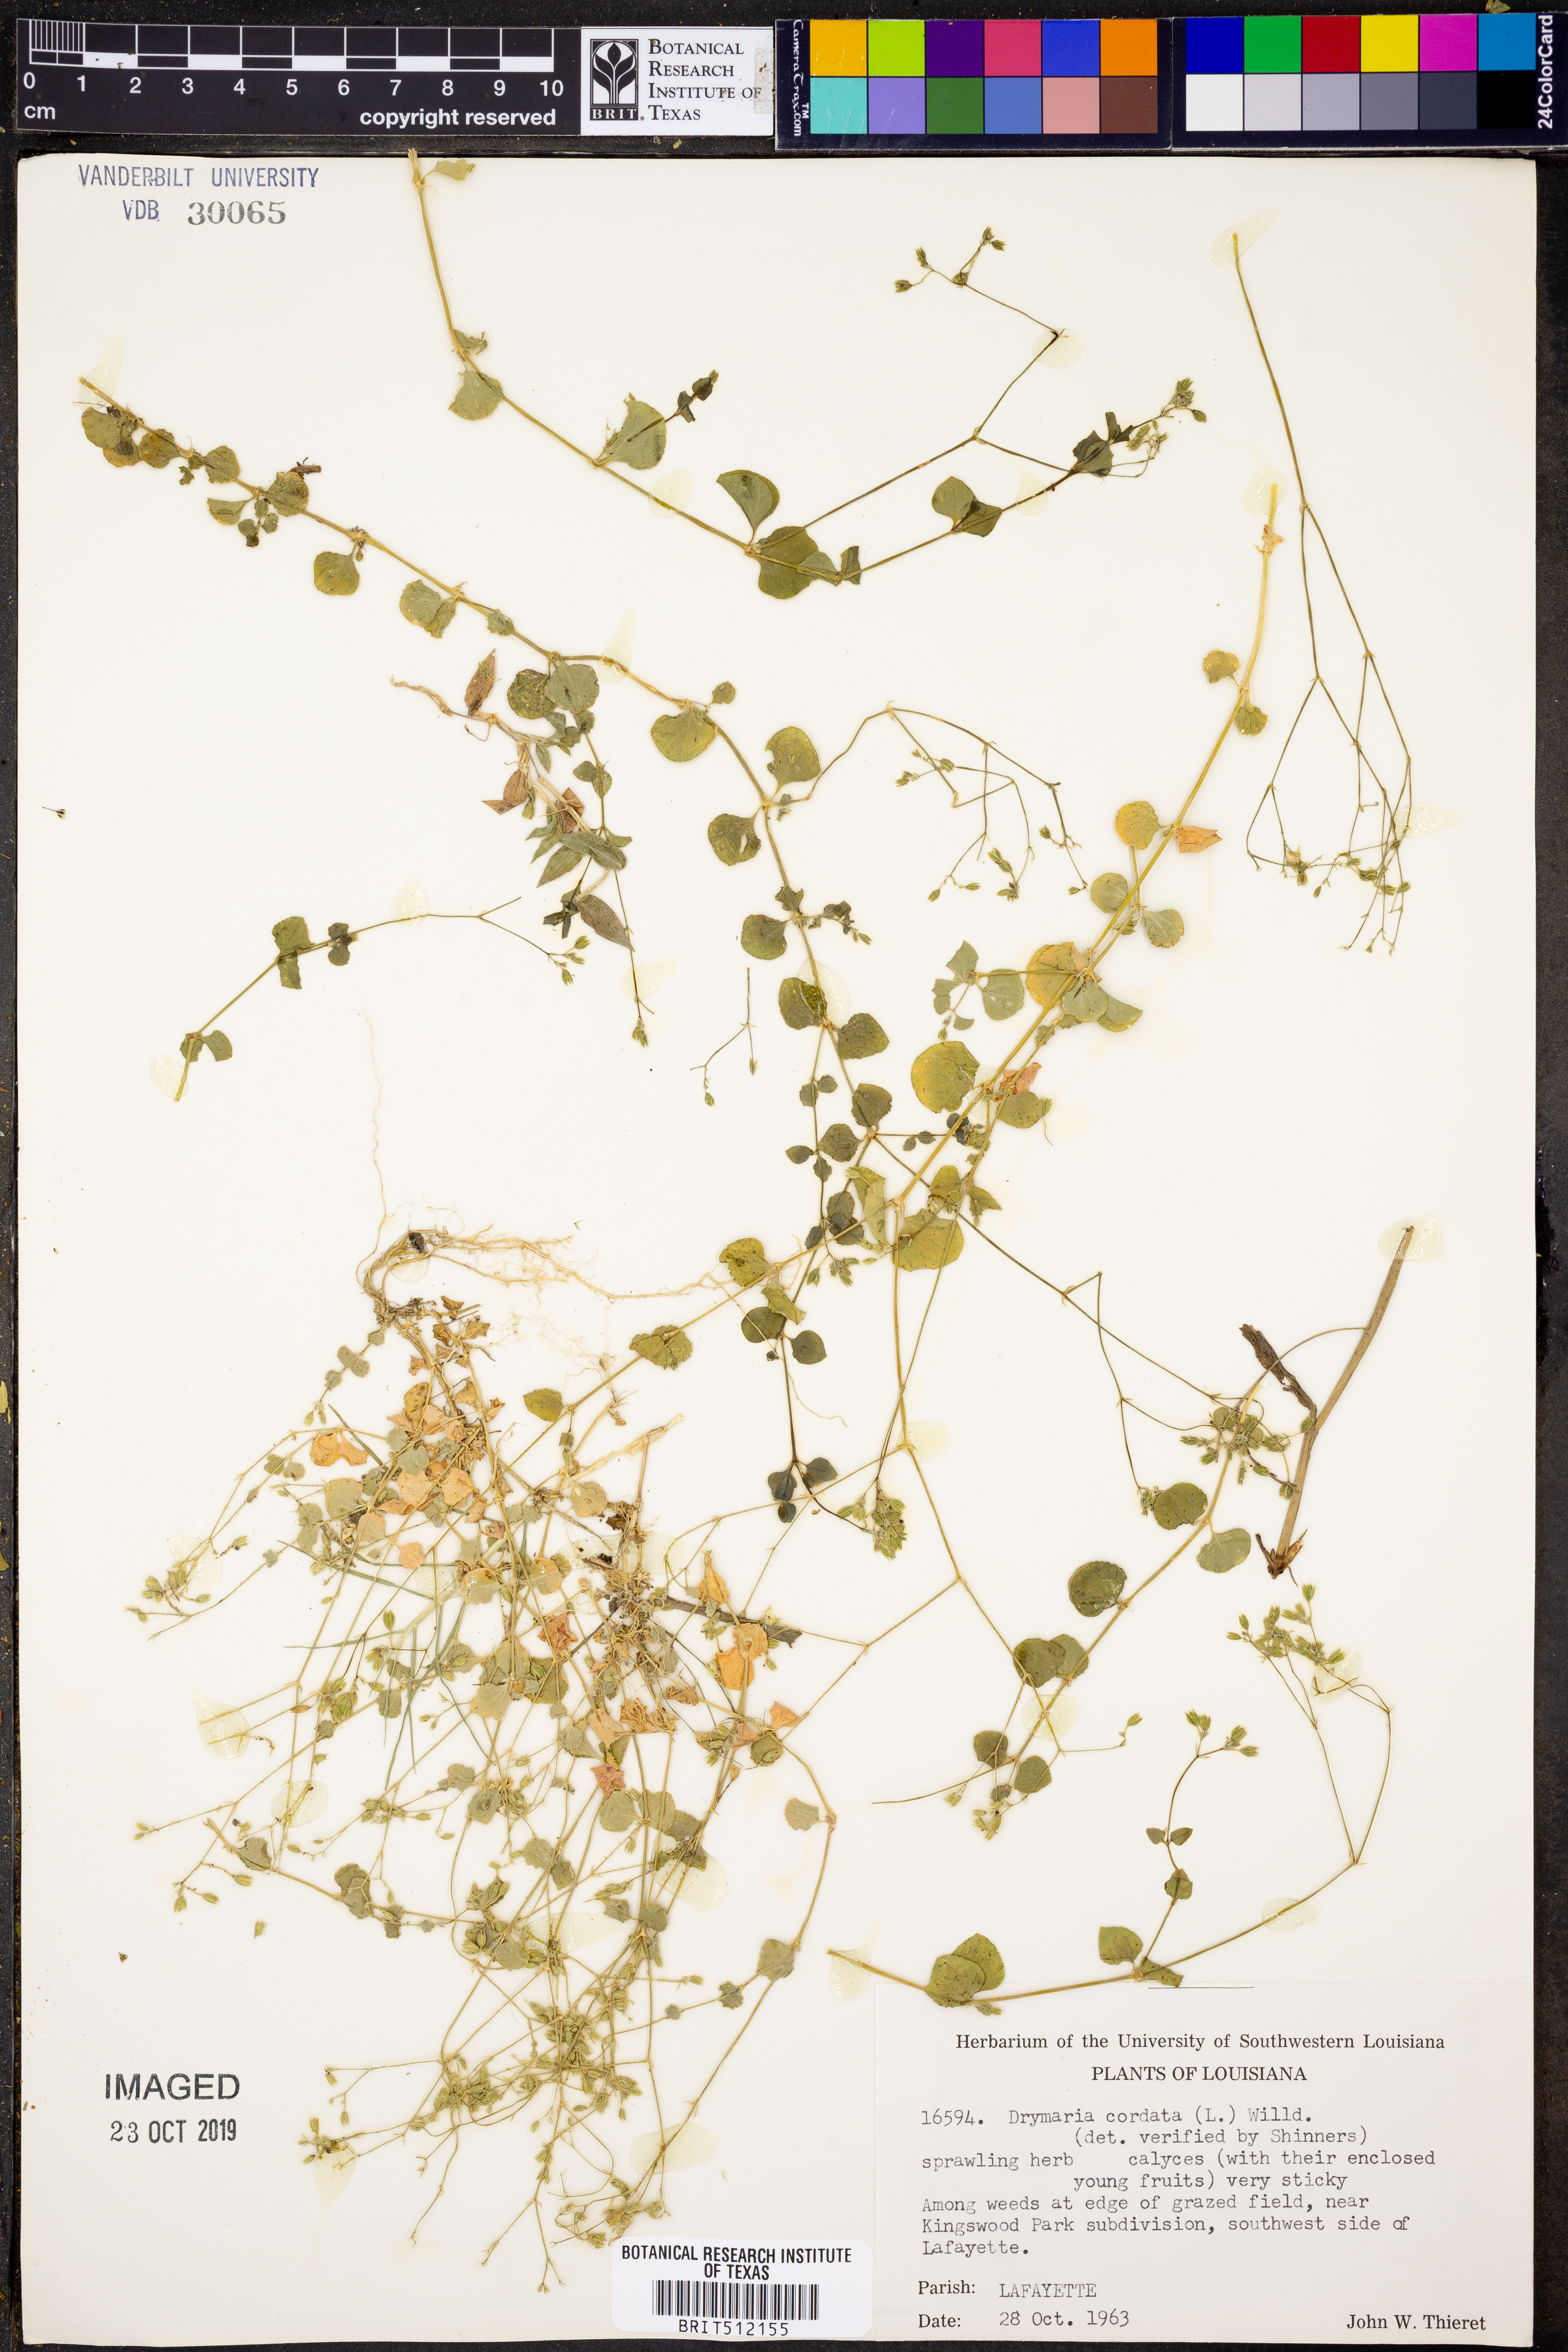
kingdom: Plantae
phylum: Tracheophyta
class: Magnoliopsida
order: Caryophyllales
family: Caryophyllaceae
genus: Drymaria
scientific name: Drymaria cordata
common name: Whitesnow
